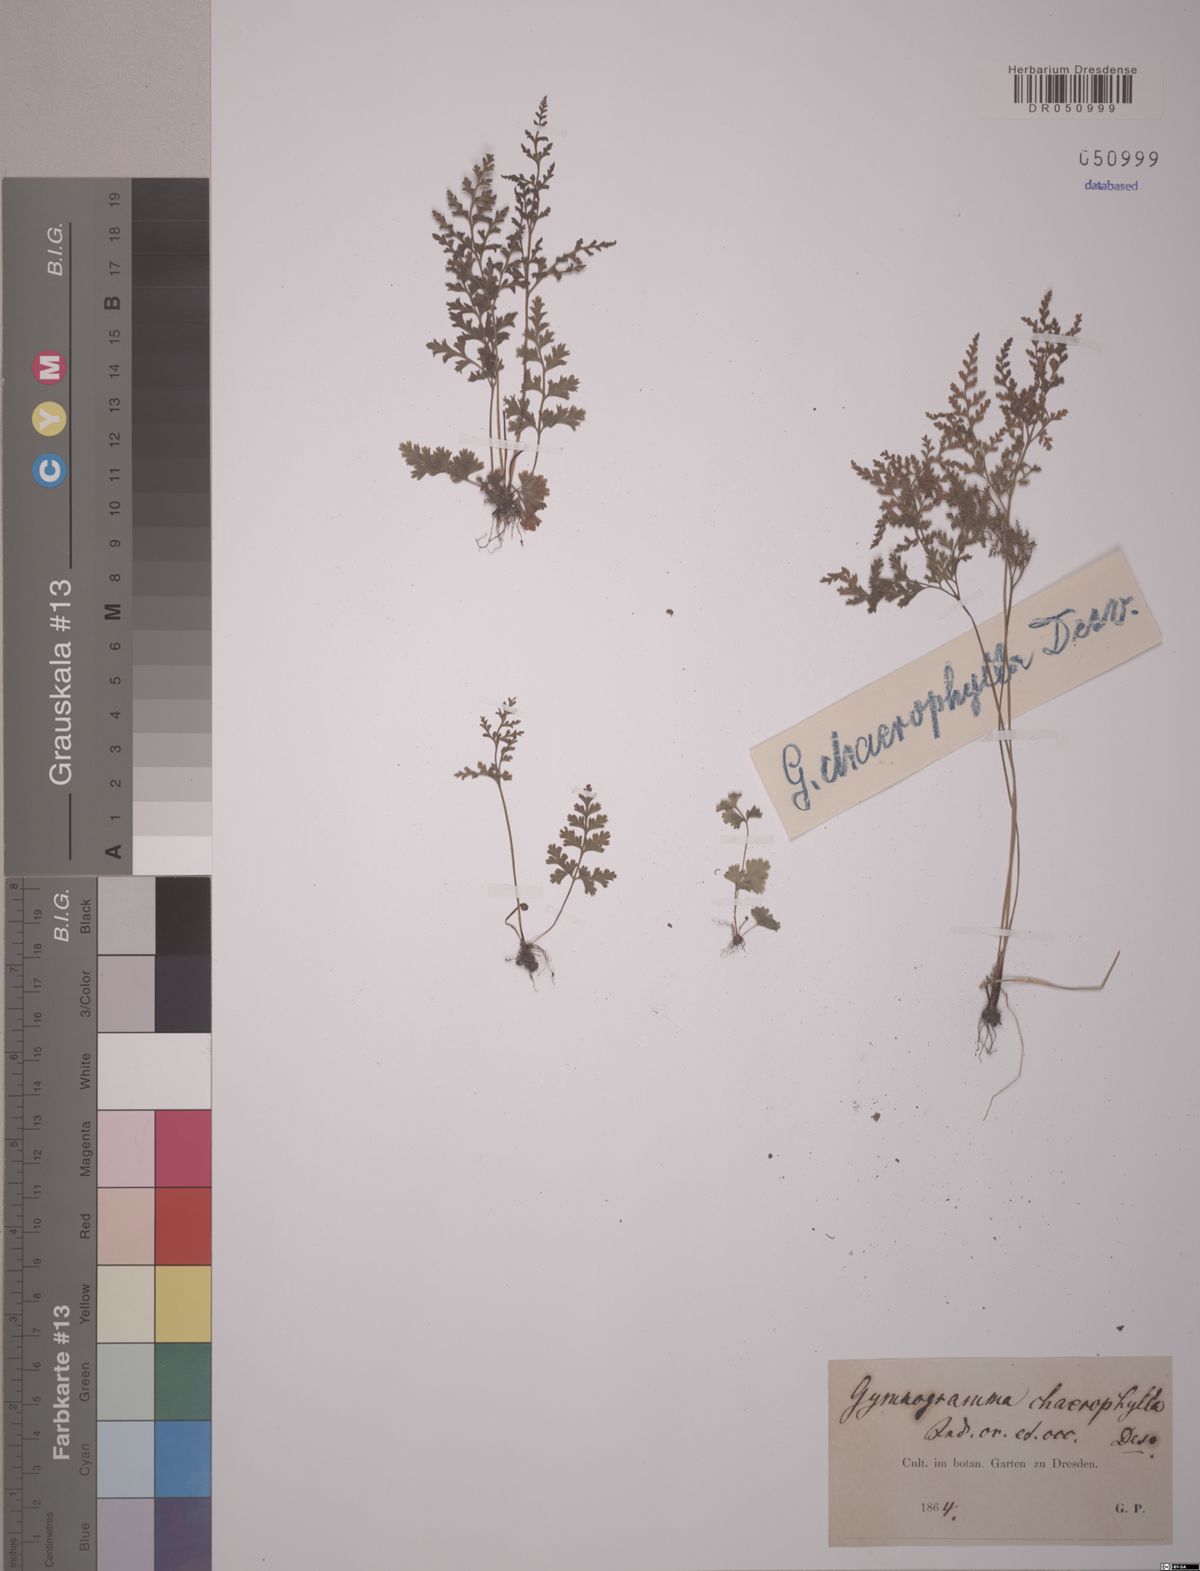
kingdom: Plantae
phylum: Tracheophyta
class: Polypodiopsida
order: Polypodiales
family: Pteridaceae
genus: Anogramma
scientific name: Anogramma leptophylla
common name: Jersey fern
